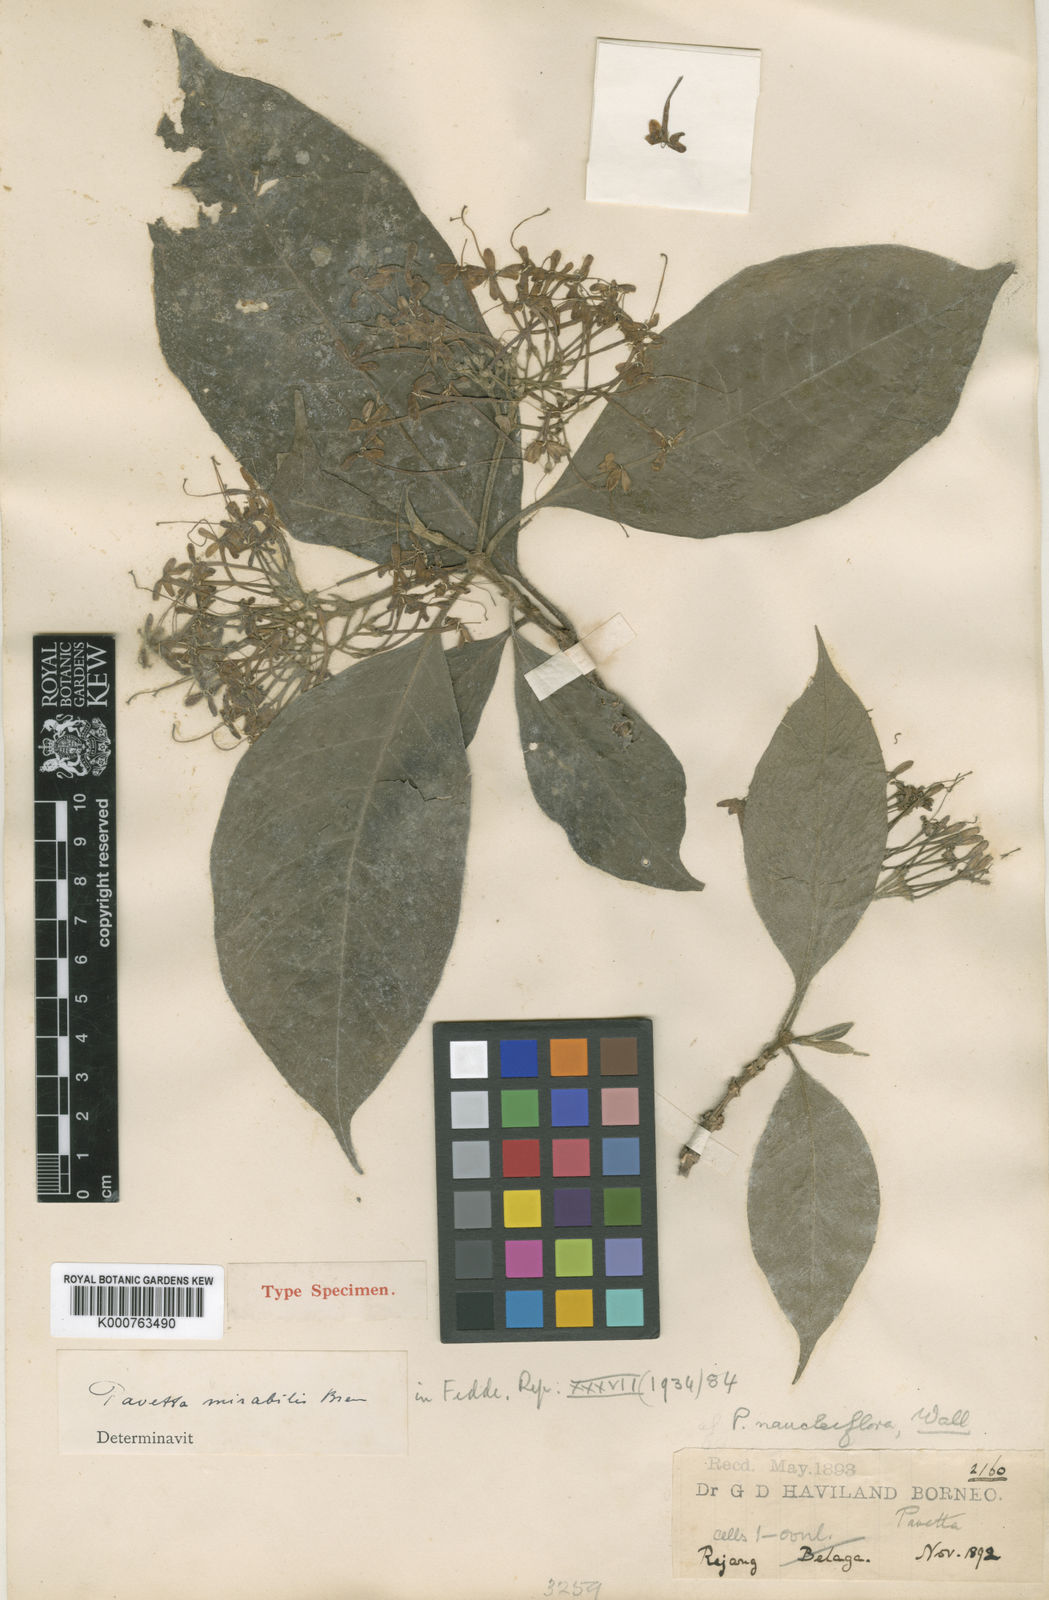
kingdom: Plantae
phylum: Tracheophyta
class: Magnoliopsida
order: Gentianales
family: Rubiaceae
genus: Pavetta
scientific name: Pavetta mirabilis
